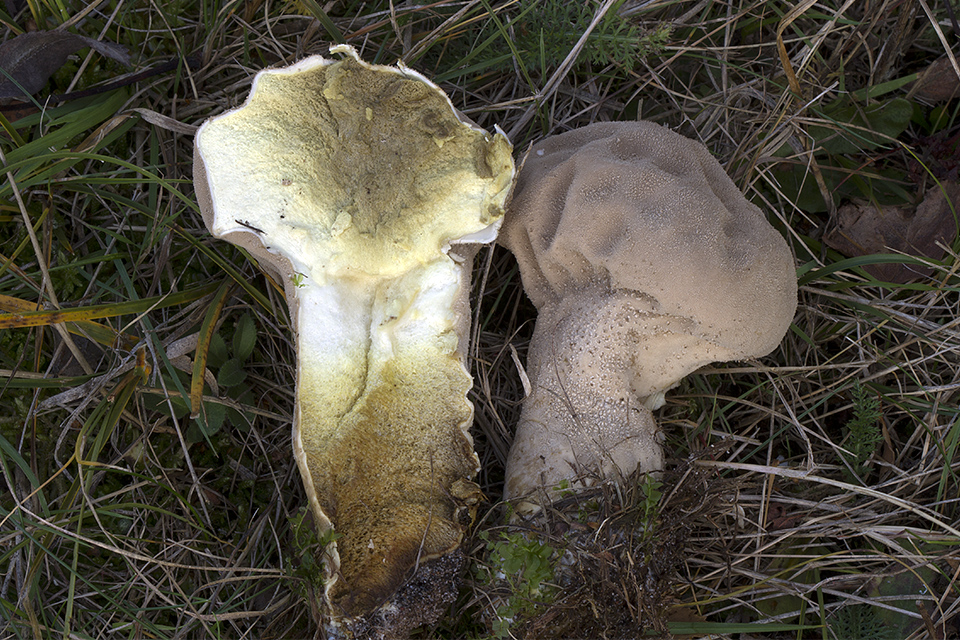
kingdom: Fungi
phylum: Basidiomycota
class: Agaricomycetes
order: Agaricales
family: Lycoperdaceae
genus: Lycoperdon
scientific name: Lycoperdon excipuliforme
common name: højstokket støvbold
